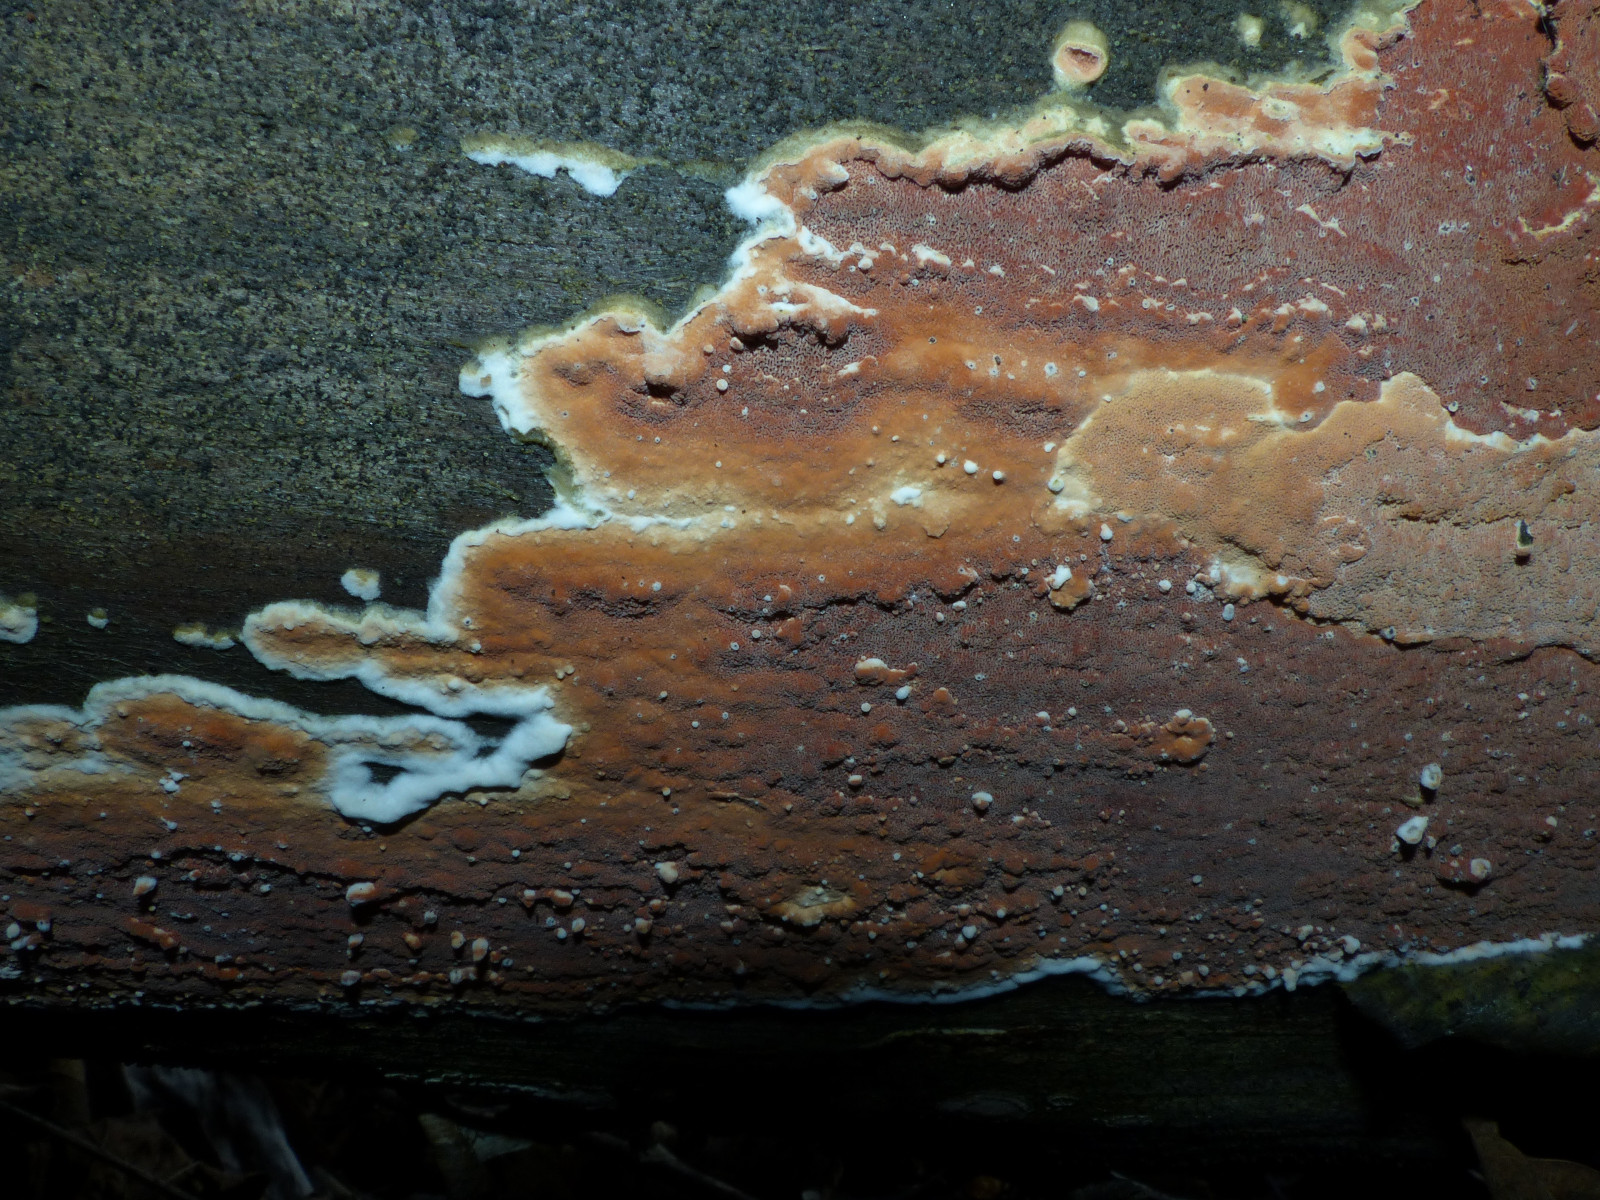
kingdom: Fungi
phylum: Basidiomycota
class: Agaricomycetes
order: Polyporales
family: Irpicaceae
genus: Meruliopsis
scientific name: Meruliopsis taxicola
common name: purpurbrun foldporesvamp
